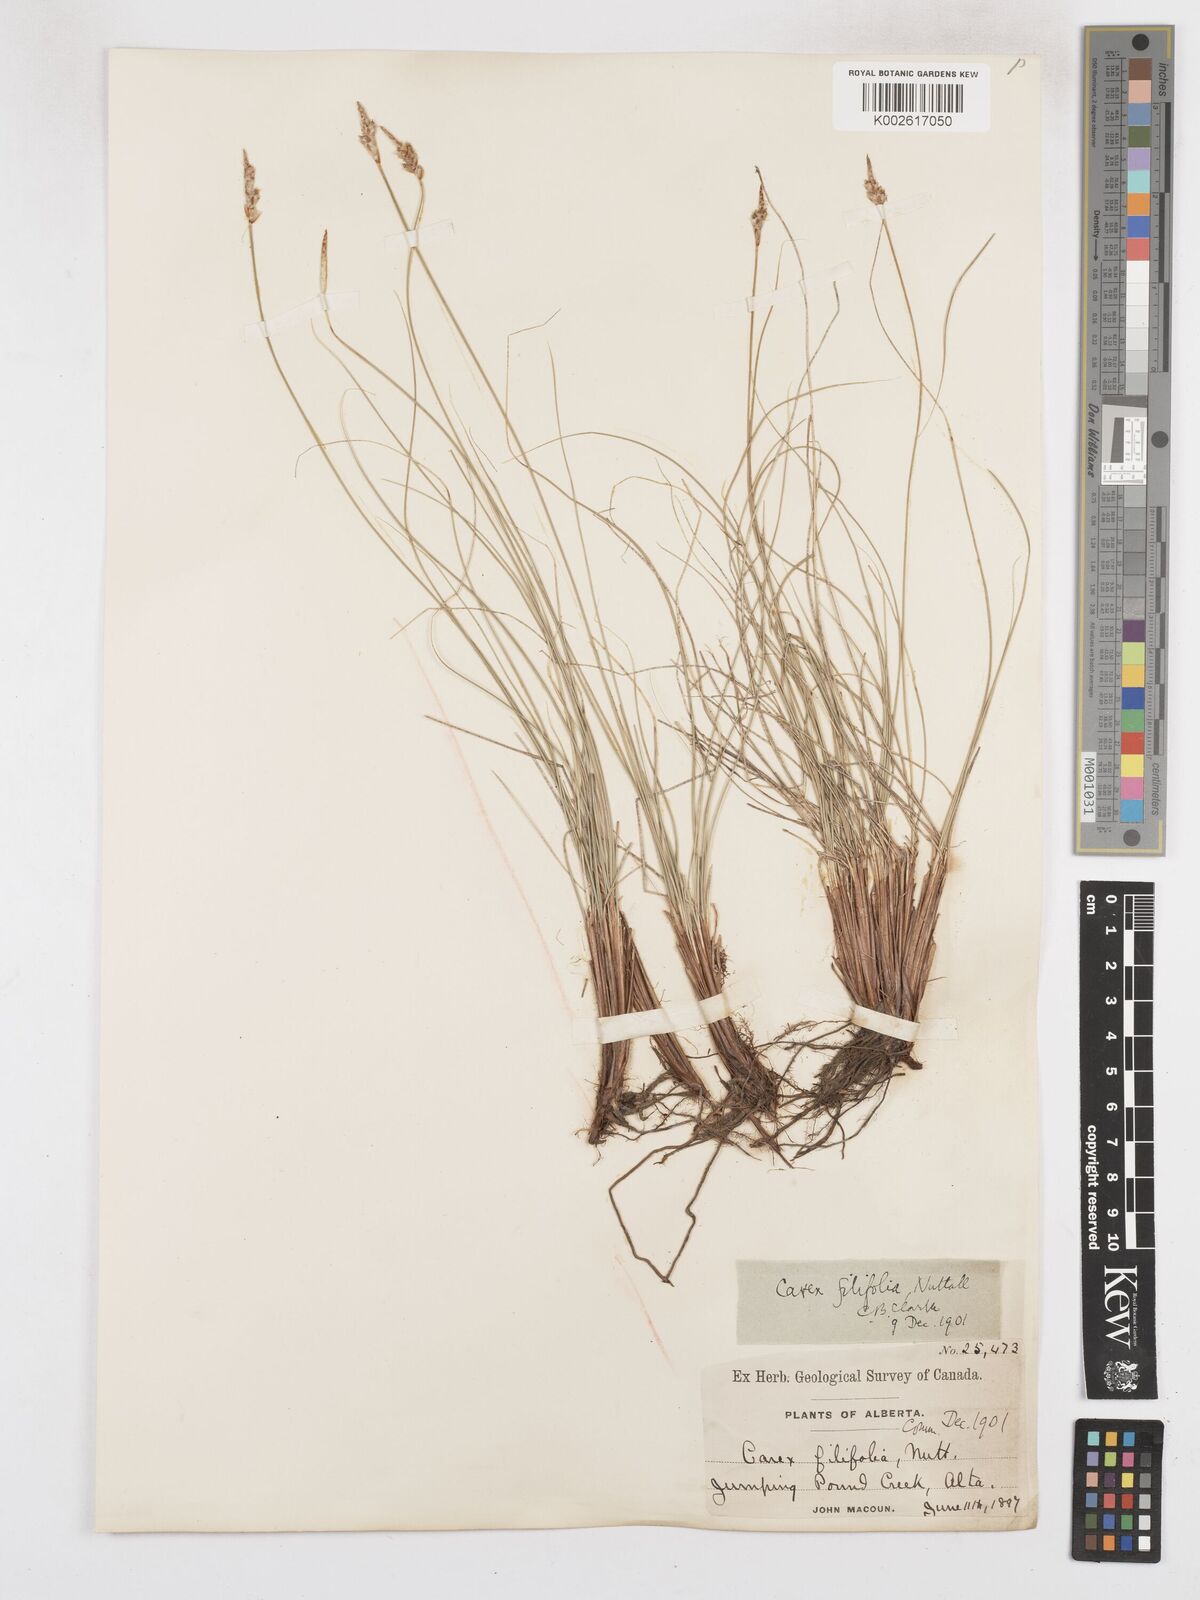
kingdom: Plantae
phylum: Tracheophyta
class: Liliopsida
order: Poales
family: Cyperaceae
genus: Carex
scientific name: Carex filifolia
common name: Threadleaf sedge
